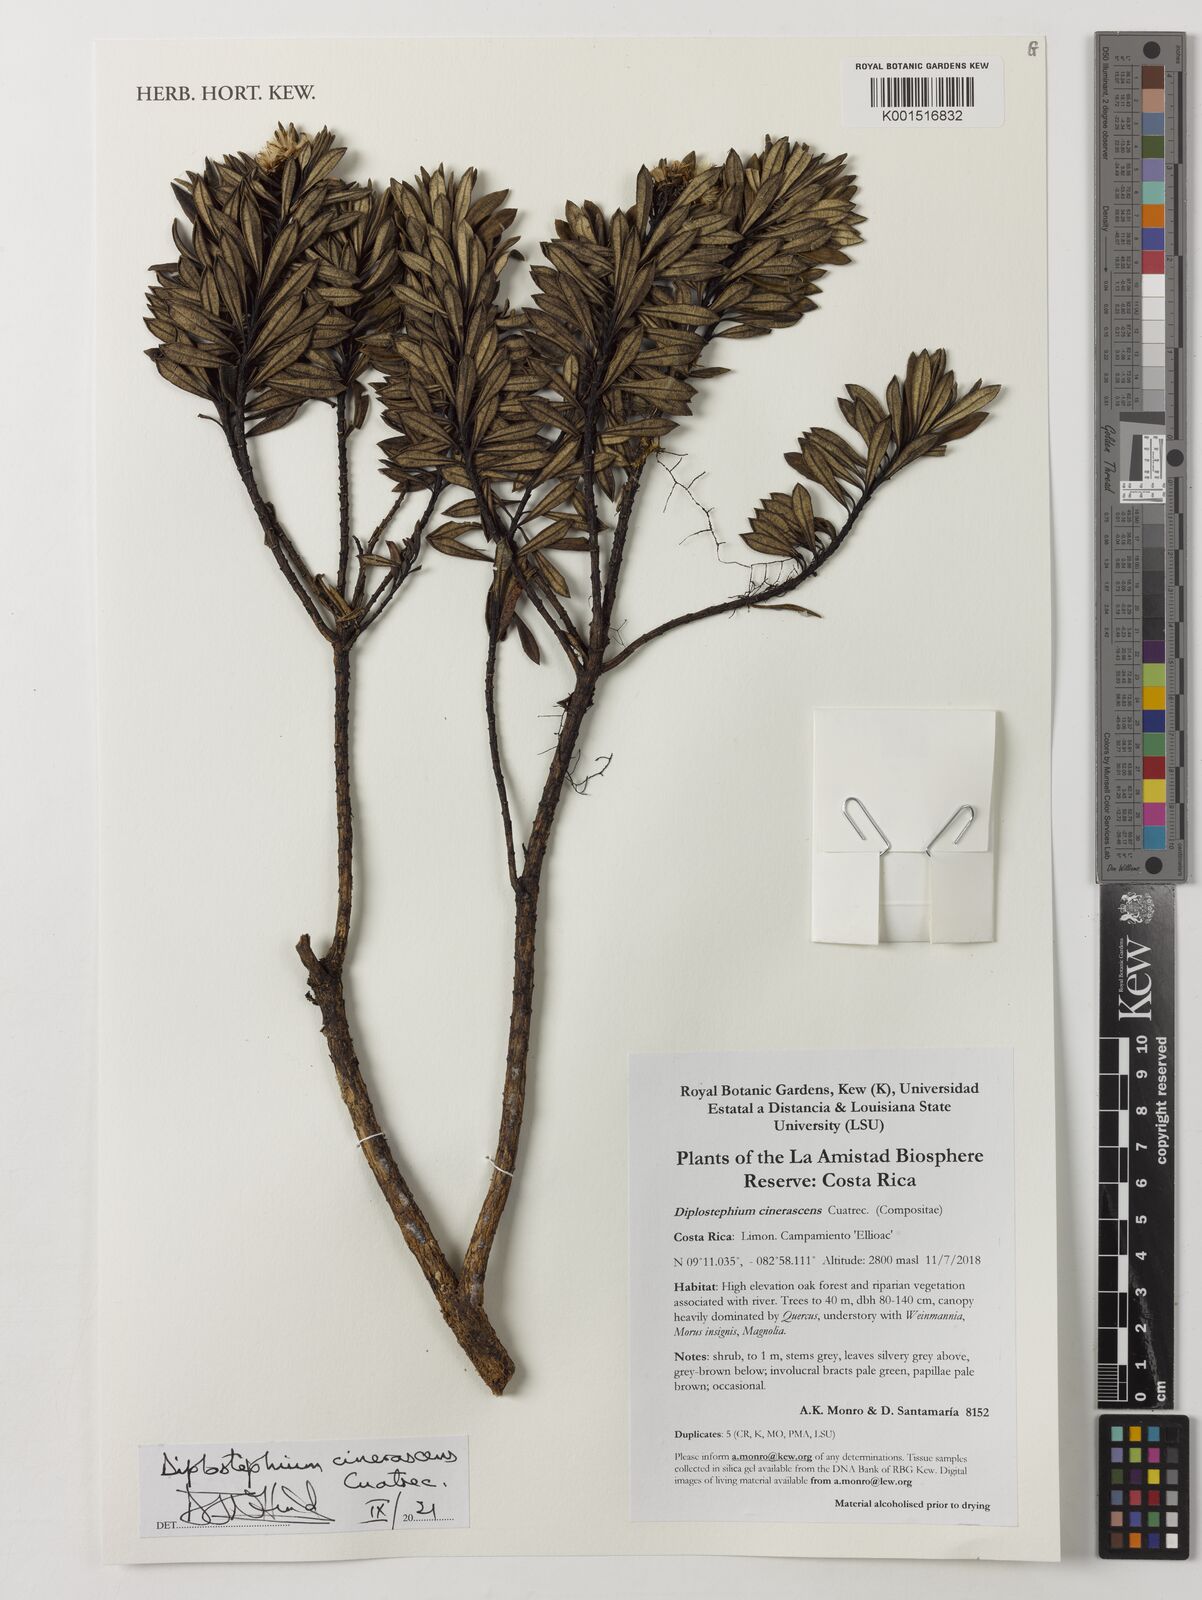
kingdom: Plantae
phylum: Tracheophyta
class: Magnoliopsida
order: Asterales
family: Asteraceae
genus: Linochilus
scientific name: Linochilus cinerascens
